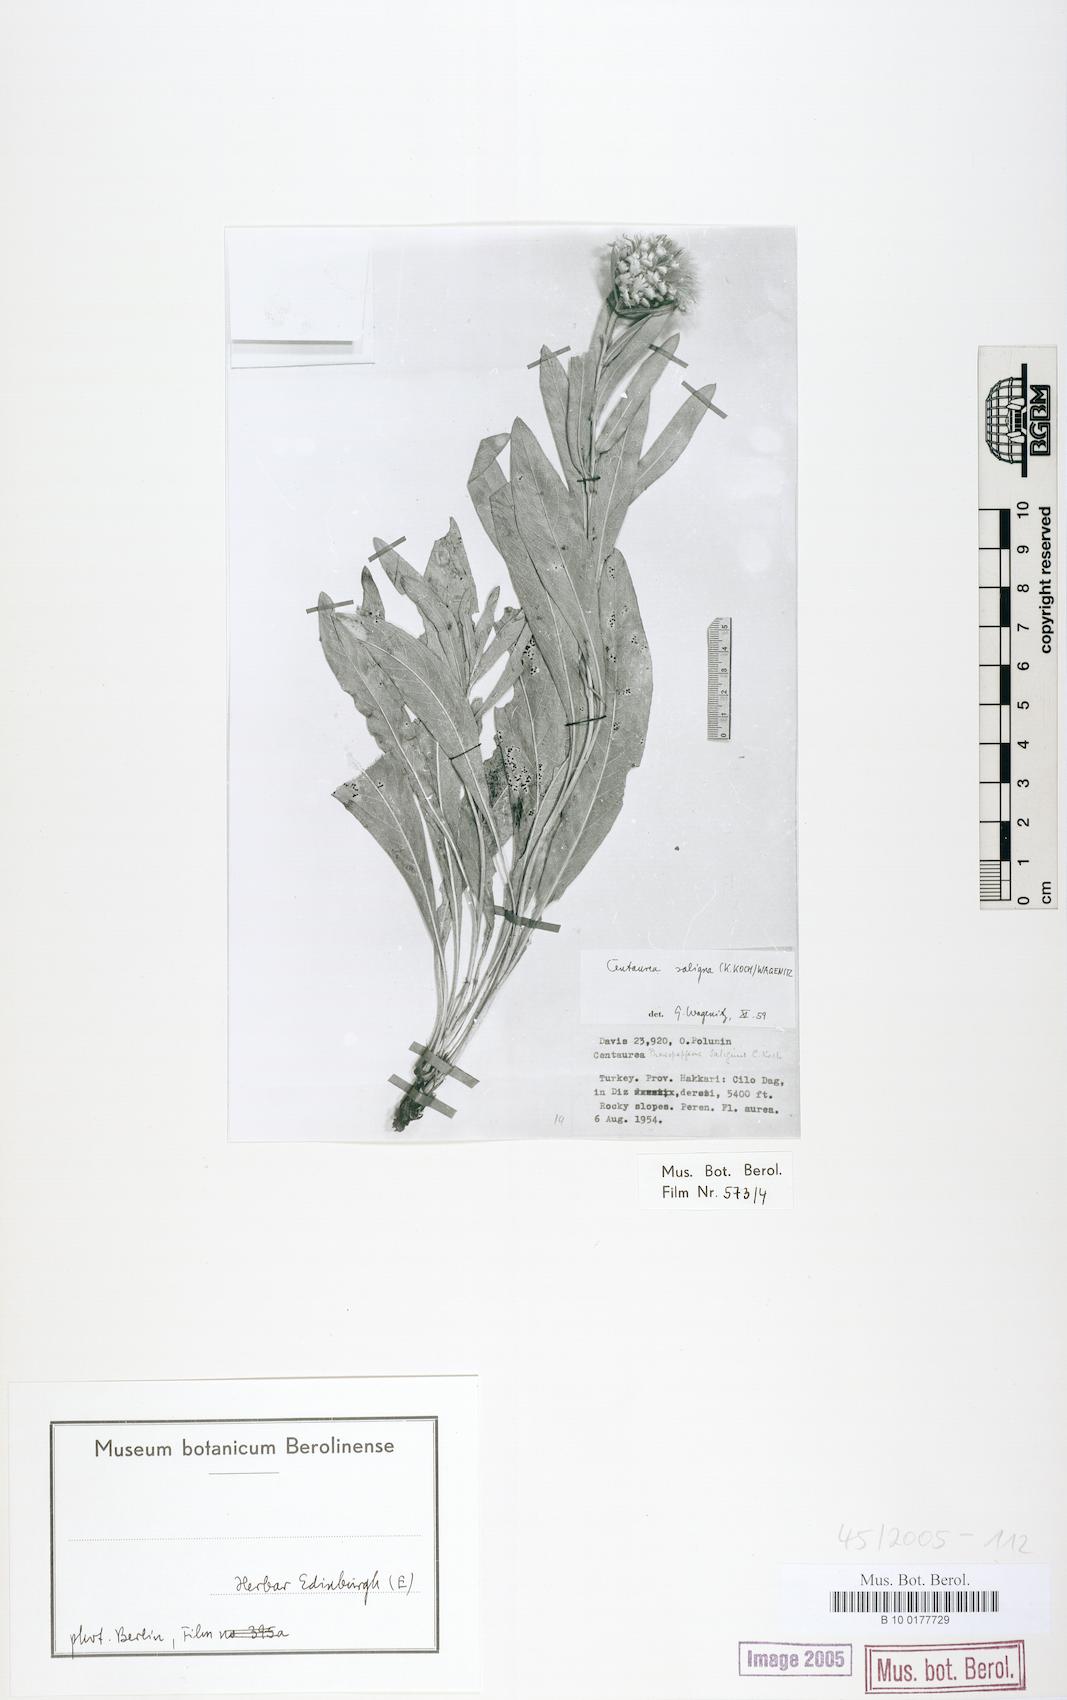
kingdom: Plantae
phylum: Tracheophyta
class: Magnoliopsida
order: Asterales
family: Asteraceae
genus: Centaurea
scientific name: Centaurea saligna
